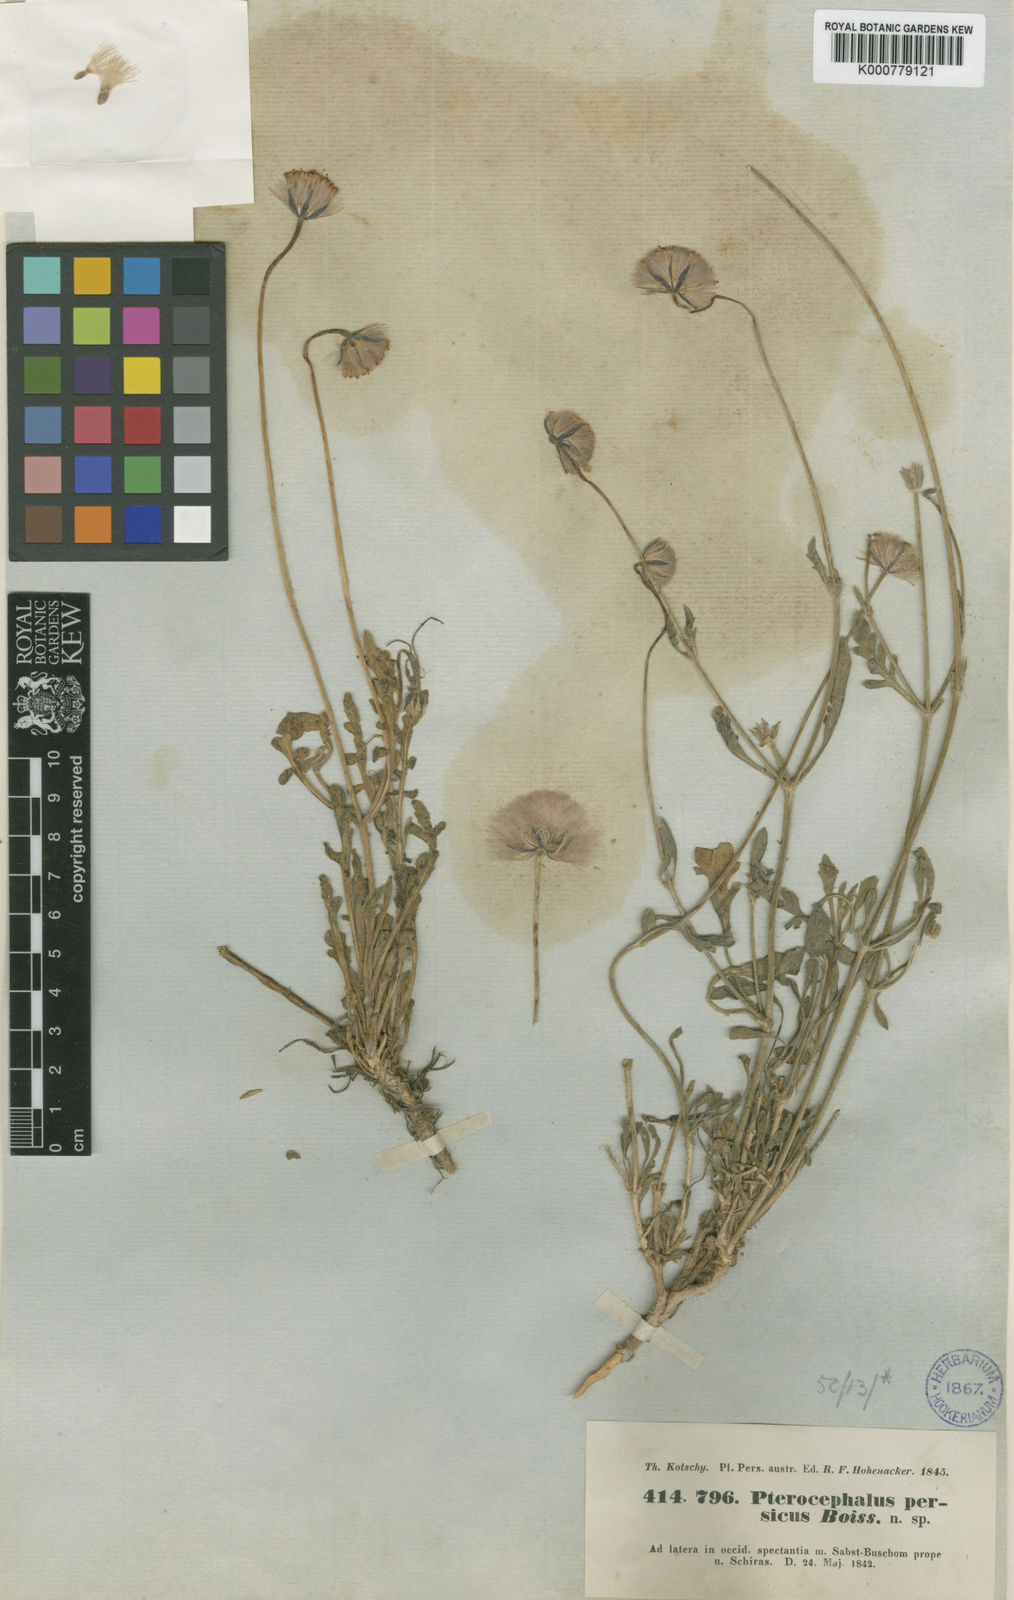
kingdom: Plantae
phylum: Tracheophyta
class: Magnoliopsida
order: Dipsacales
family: Caprifoliaceae
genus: Pterocephalus
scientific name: Pterocephalus persicus
